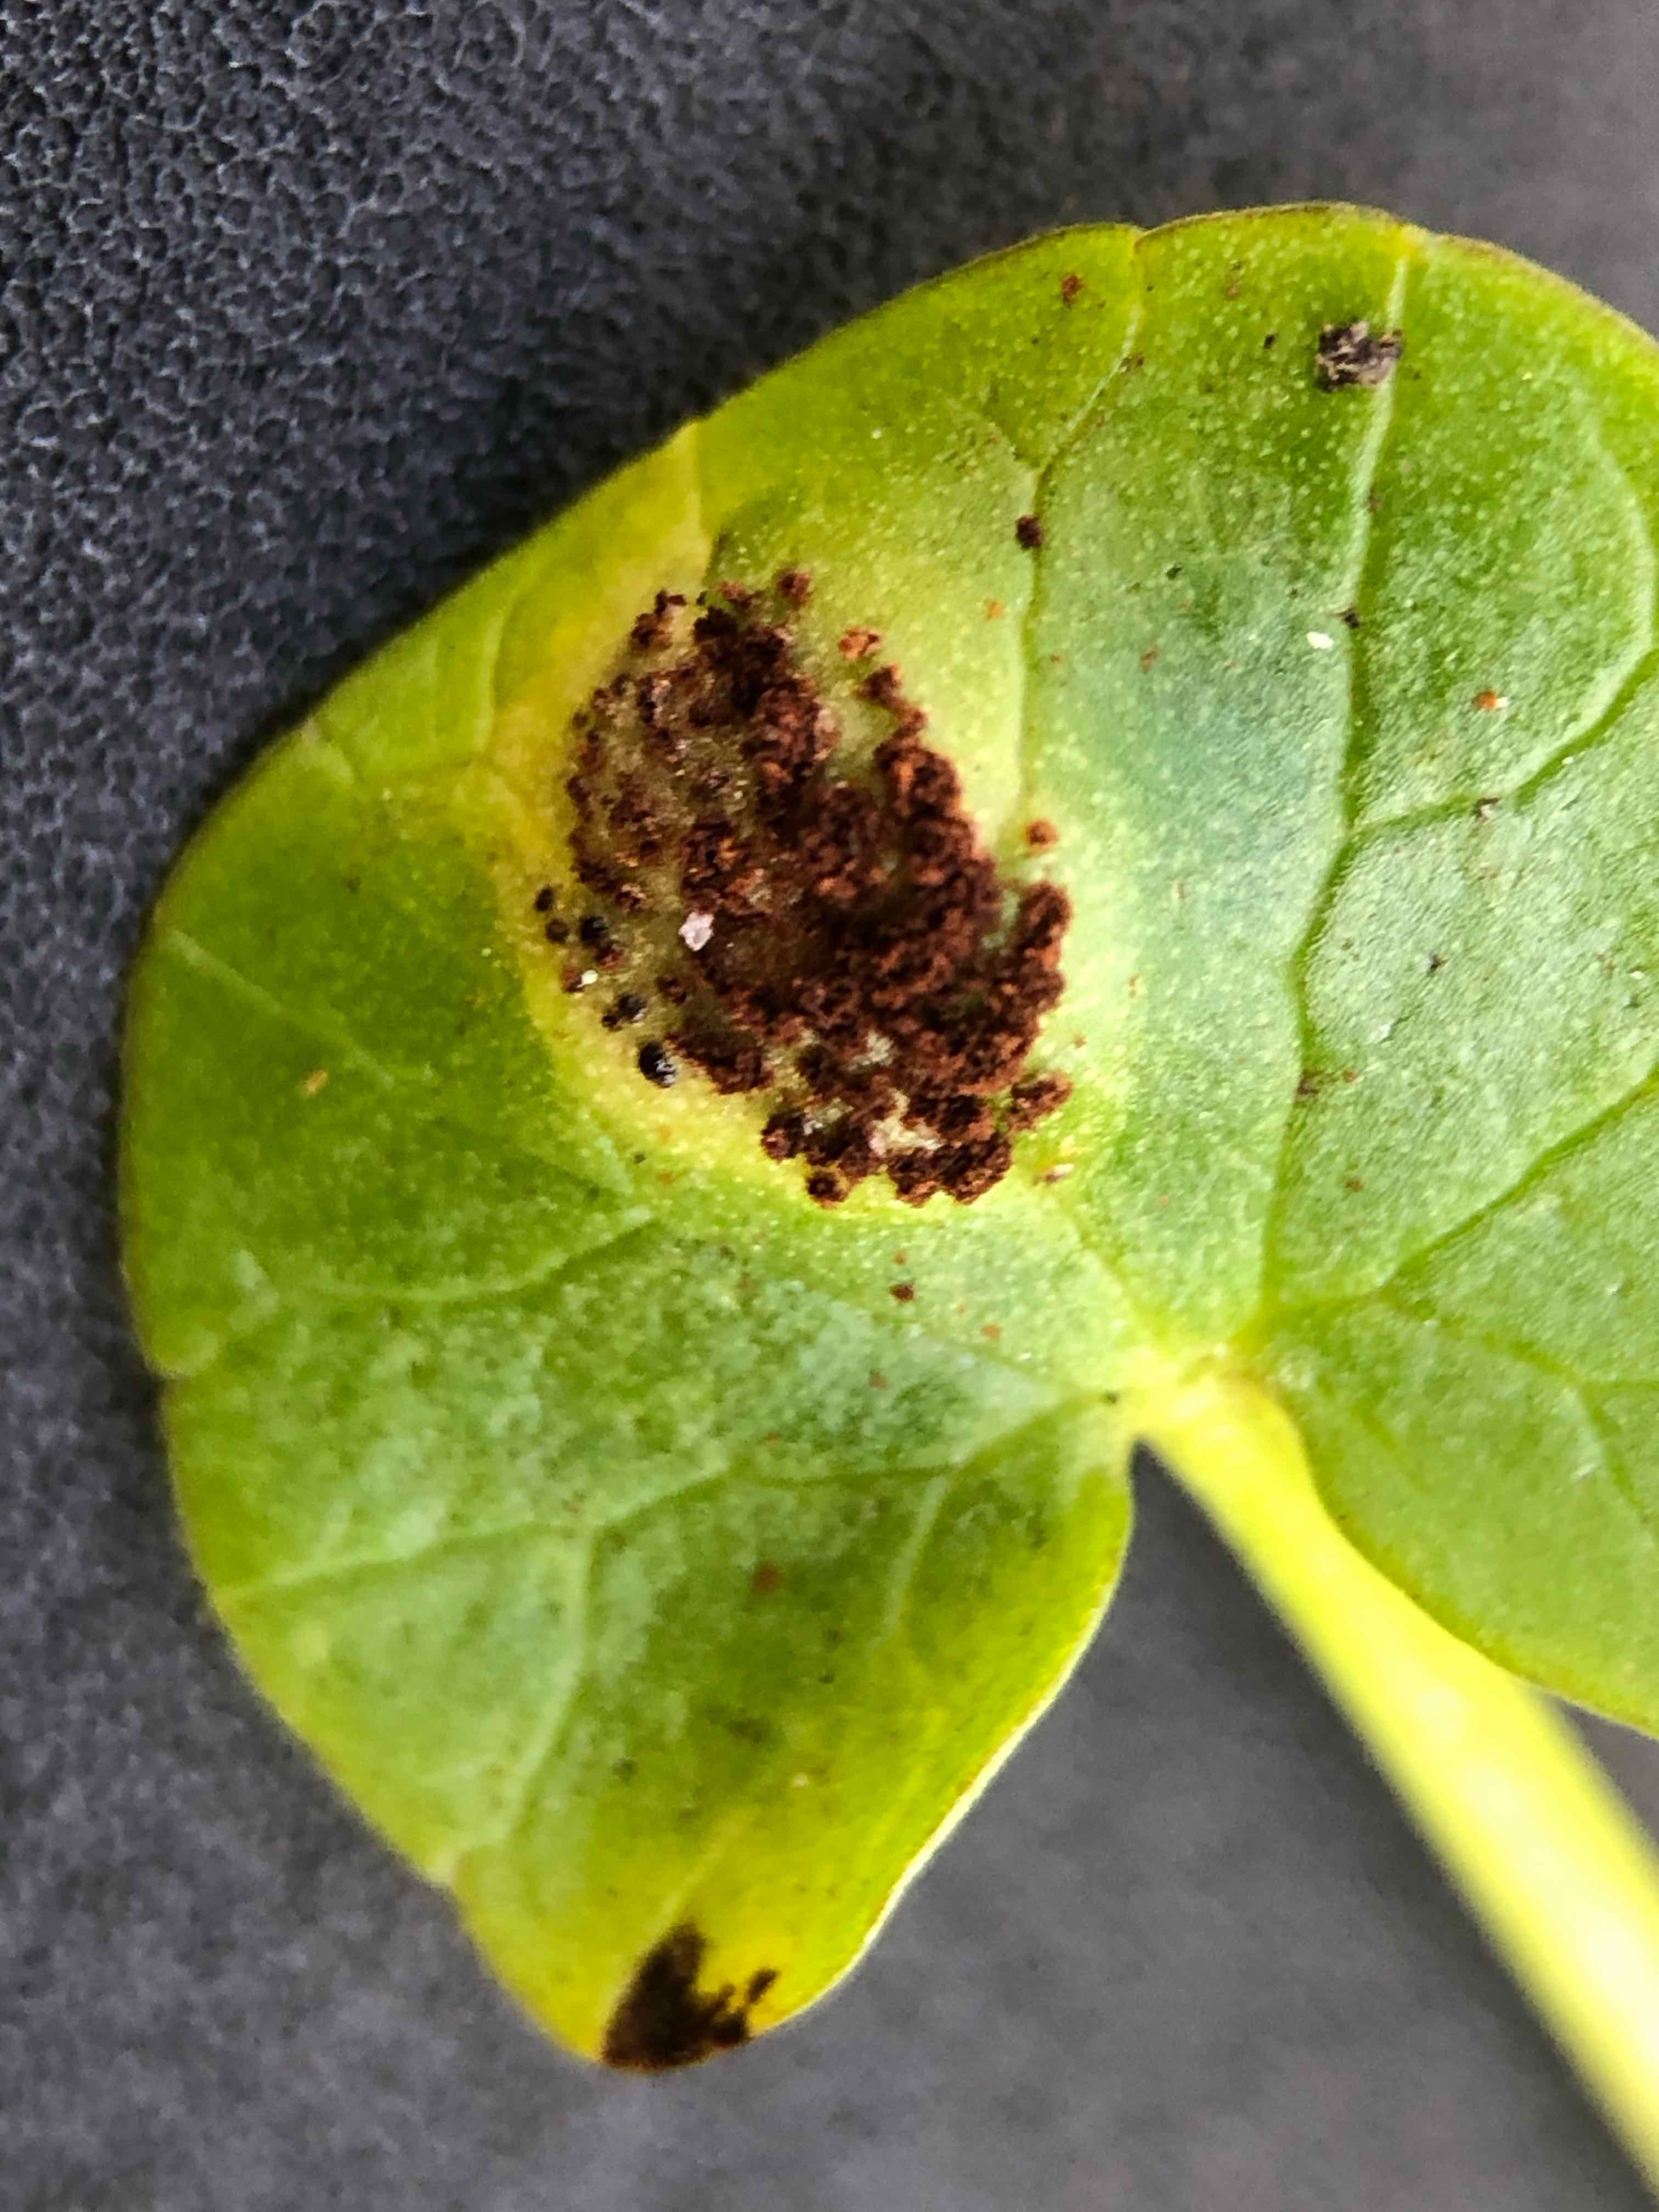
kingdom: Fungi
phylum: Basidiomycota
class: Pucciniomycetes
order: Pucciniales
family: Pucciniaceae
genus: Uromyces
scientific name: Uromyces ficariae
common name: vorterod-encellerust
